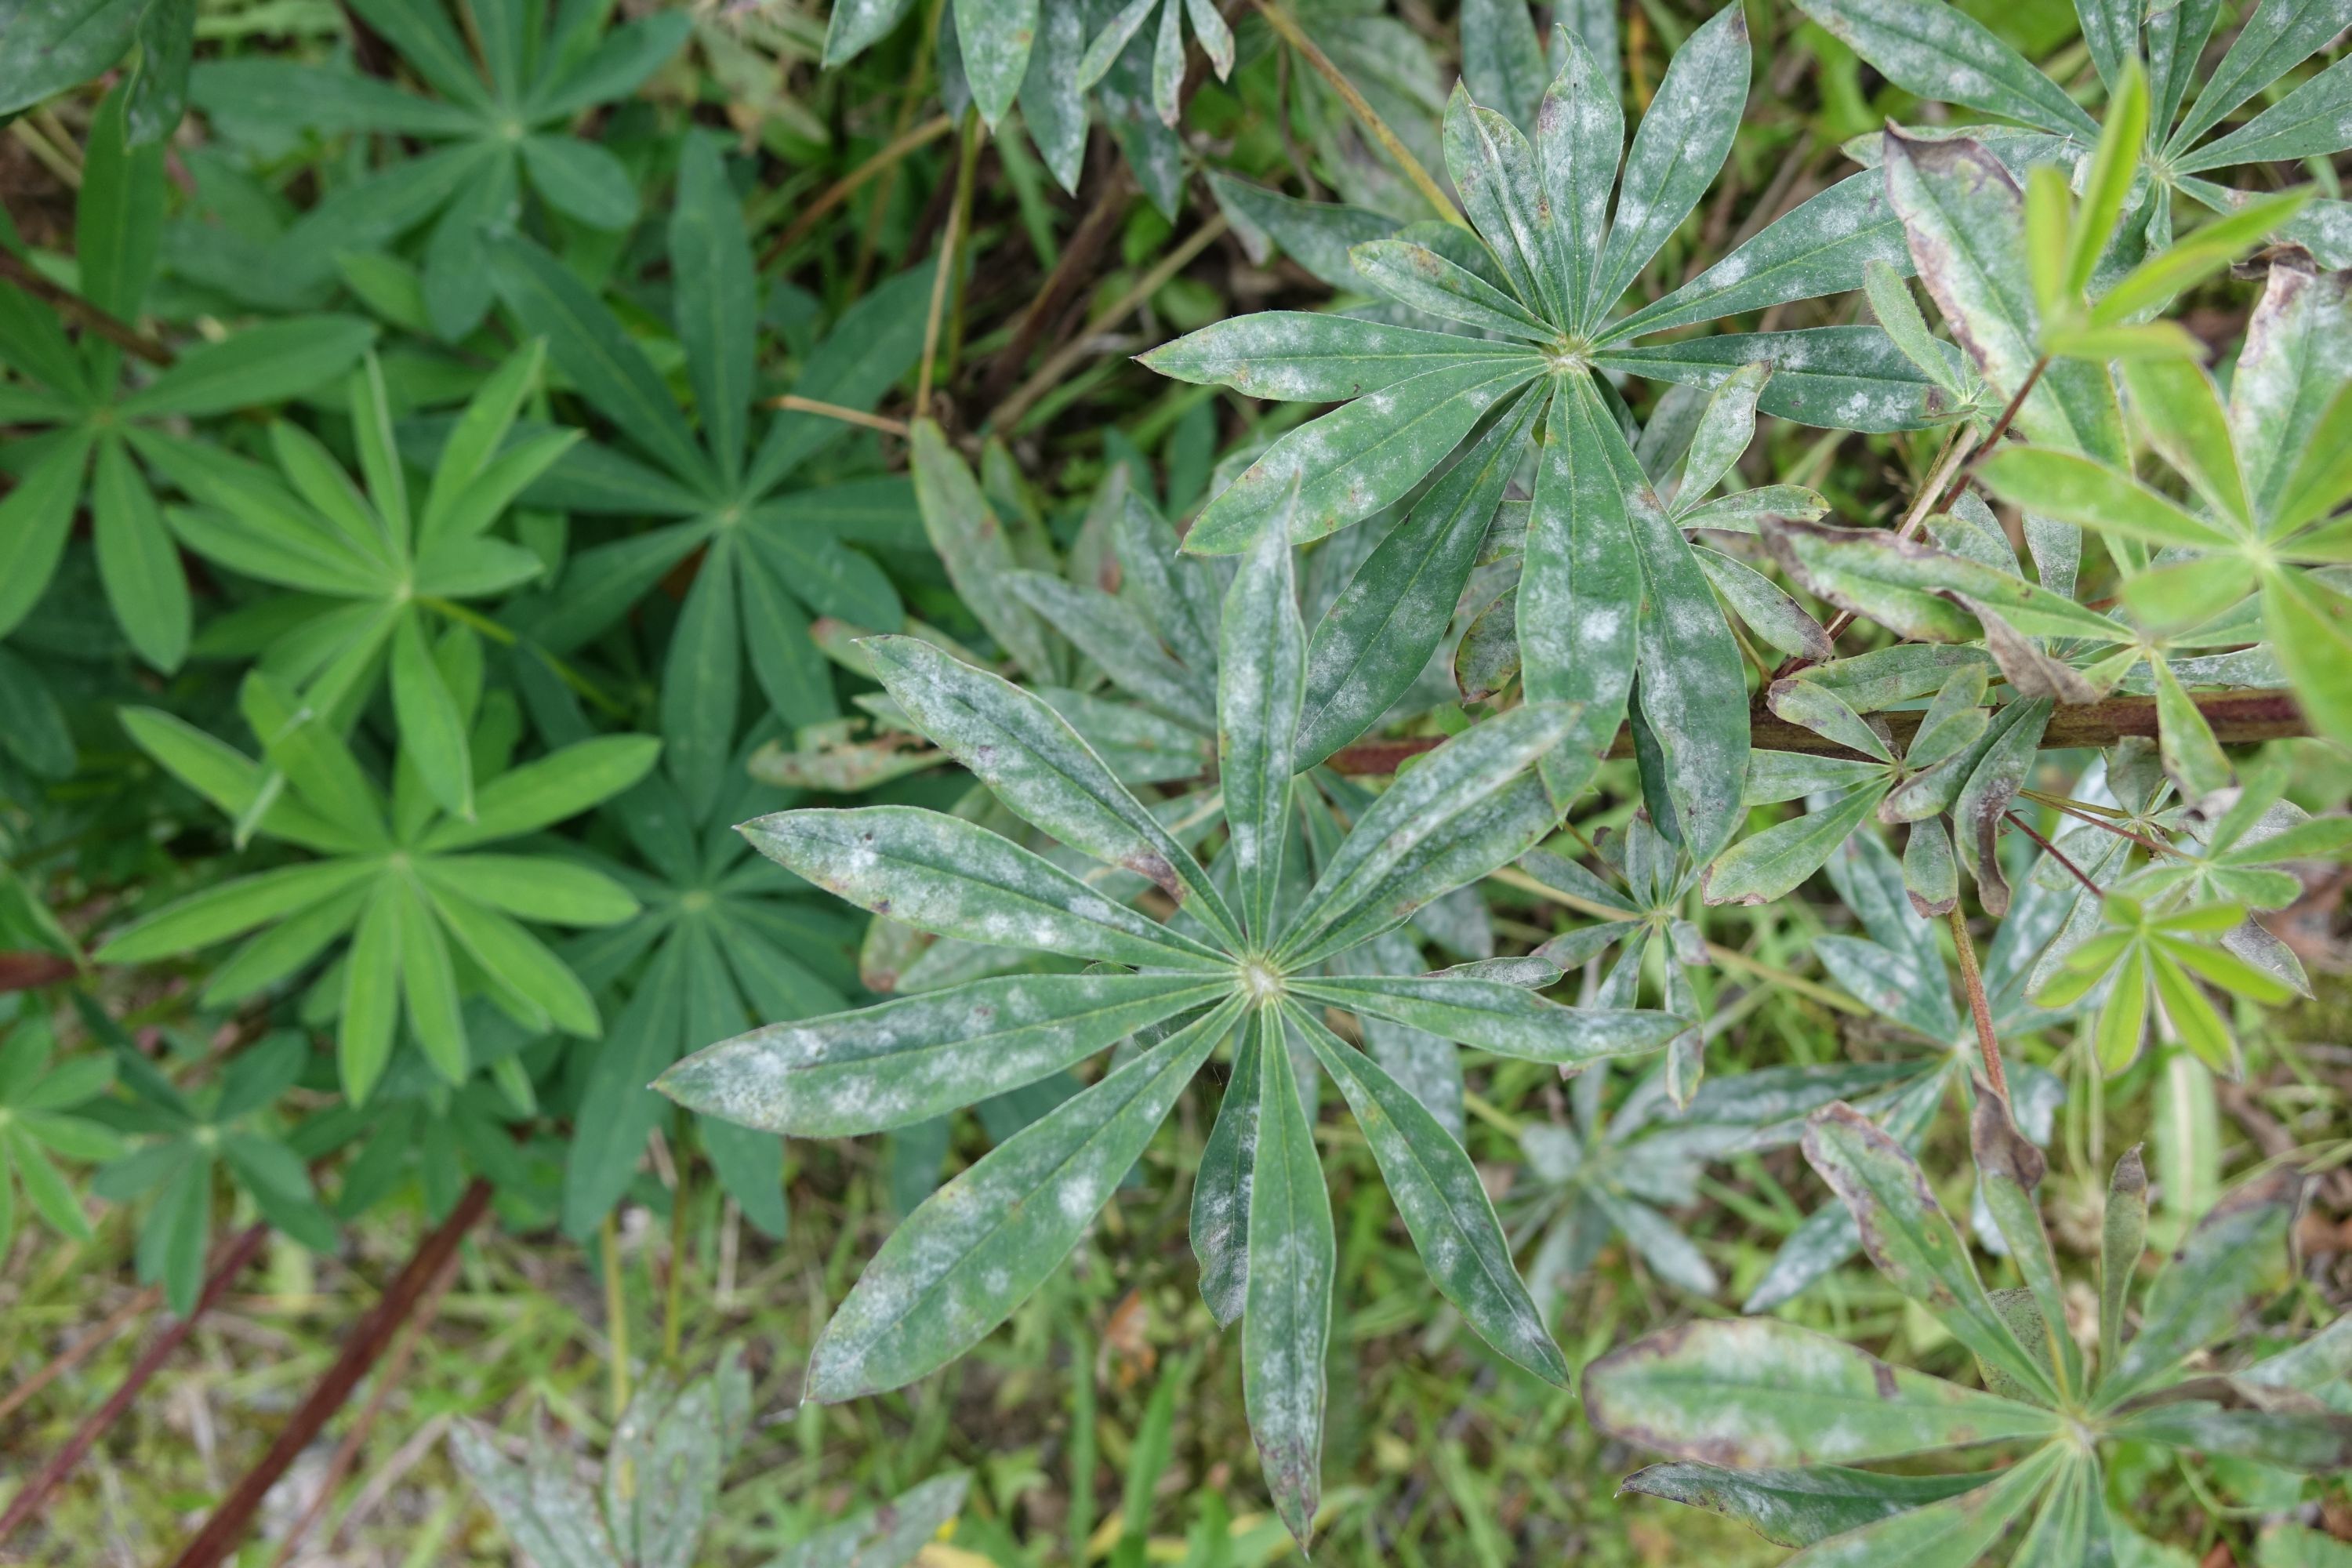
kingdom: Fungi
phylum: Ascomycota
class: Leotiomycetes
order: Helotiales
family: Erysiphaceae
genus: Erysiphe
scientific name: Erysiphe intermedia
